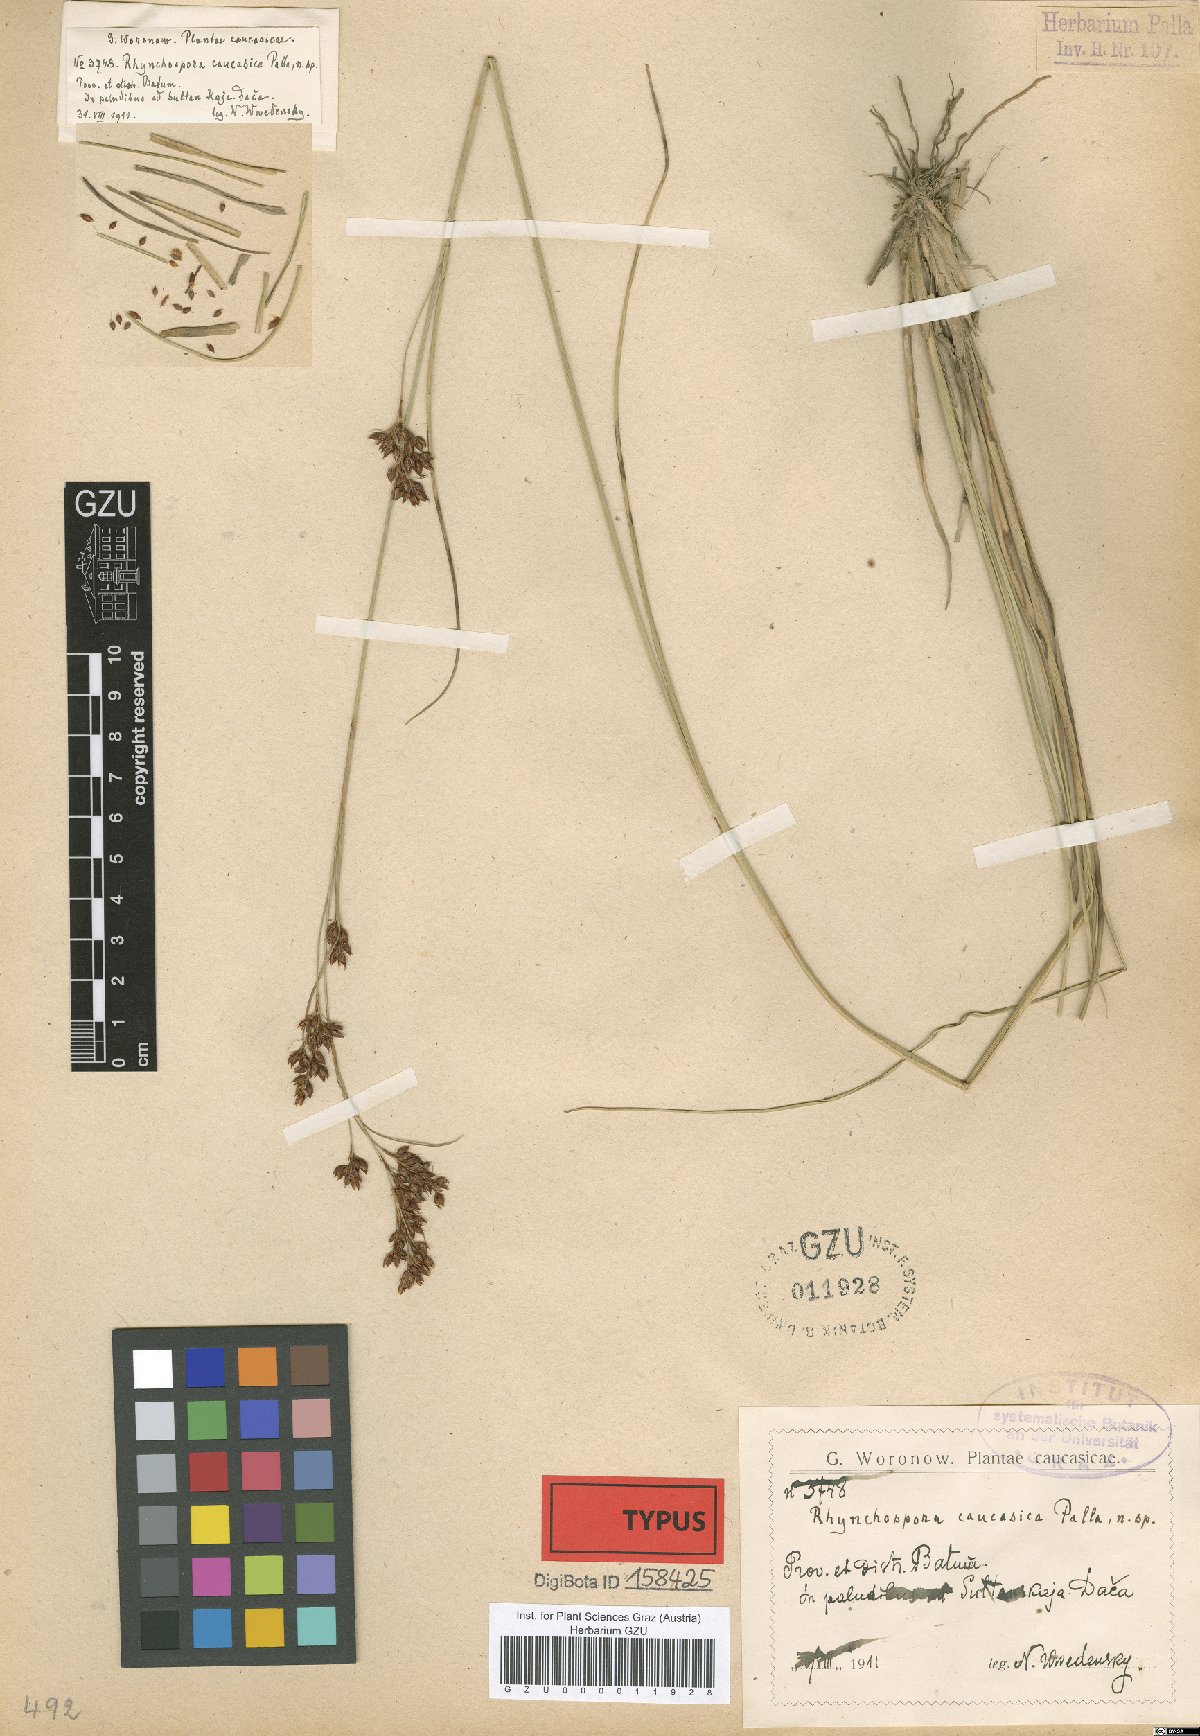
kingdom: Plantae
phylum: Tracheophyta
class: Liliopsida
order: Poales
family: Cyperaceae
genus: Rhynchospora
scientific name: Rhynchospora caucasica
